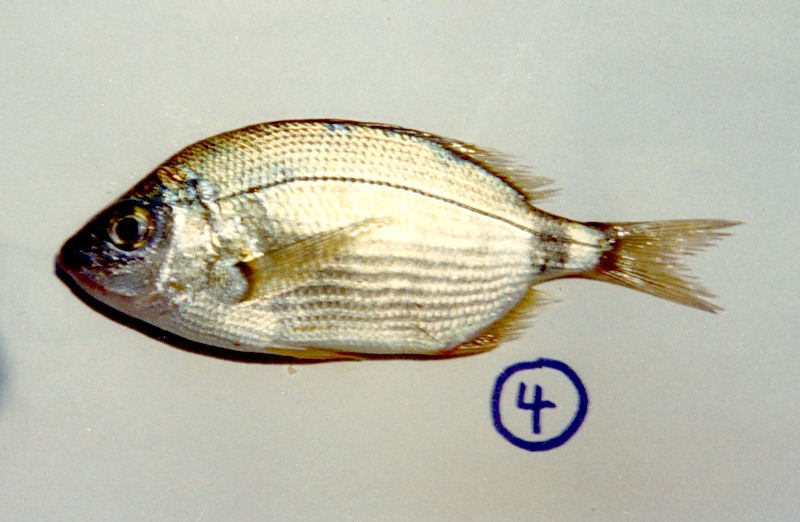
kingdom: Animalia
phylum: Chordata
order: Perciformes
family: Sparidae
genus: Diplodus
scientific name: Diplodus annularis
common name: Annular seabream
